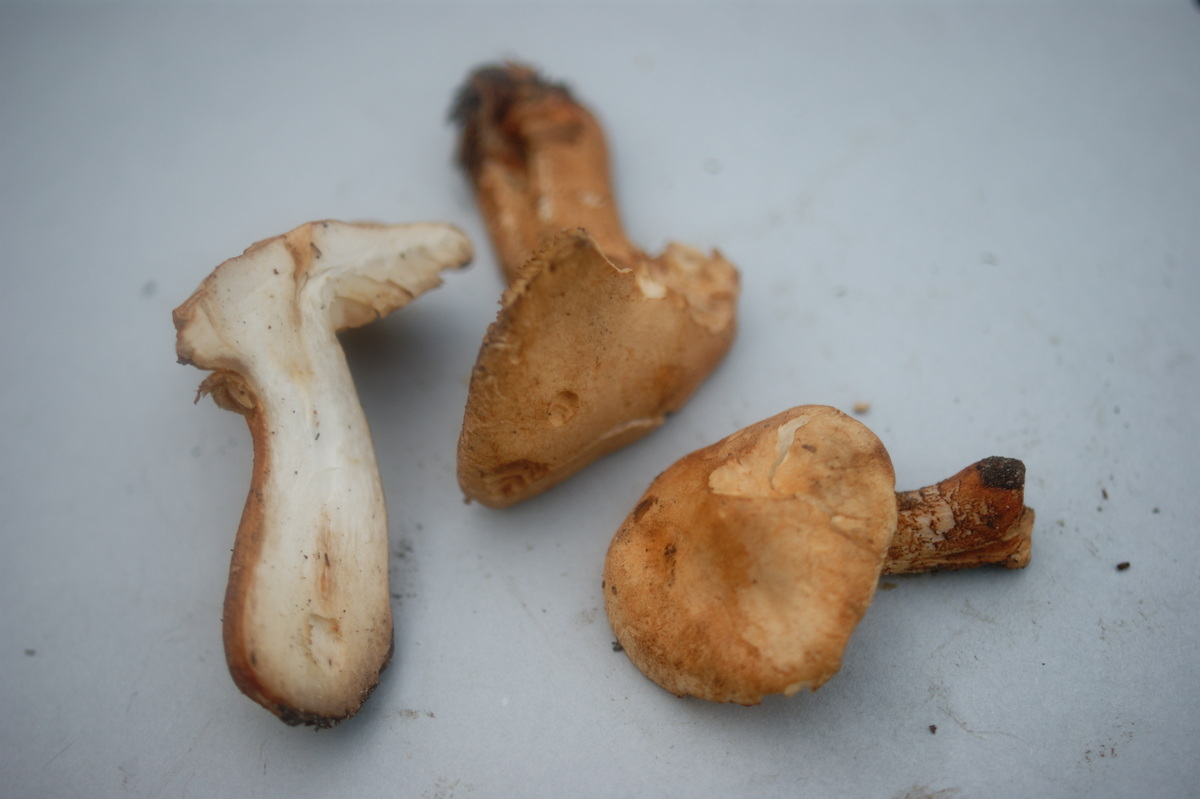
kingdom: Fungi
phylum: Basidiomycota
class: Agaricomycetes
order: Agaricales
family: Tricholomataceae
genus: Tricholoma
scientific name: Tricholoma psammopus
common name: grynstokket ridderhat
